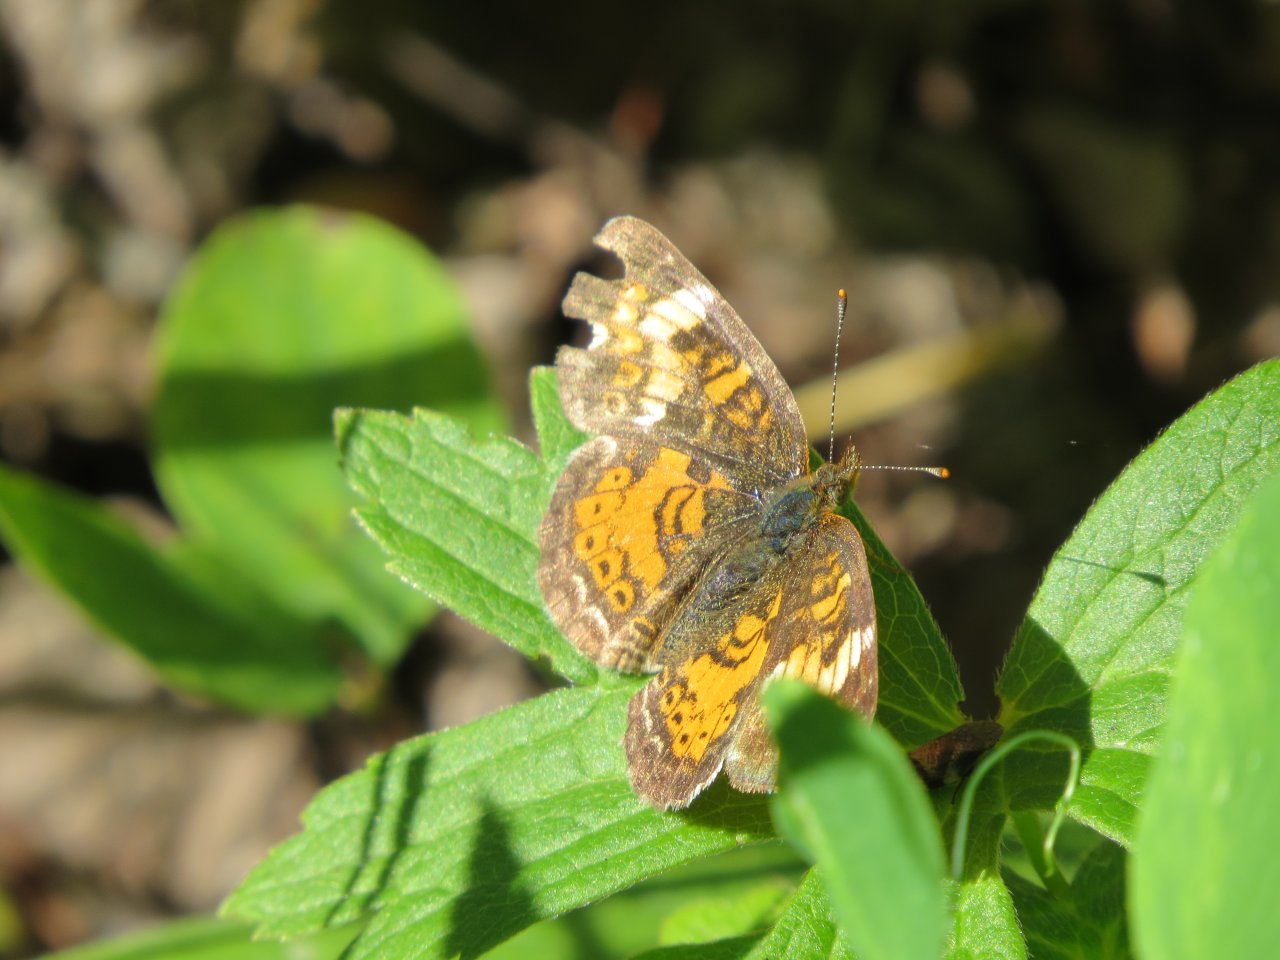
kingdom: Animalia
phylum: Arthropoda
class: Insecta
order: Lepidoptera
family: Nymphalidae
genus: Phyciodes
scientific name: Phyciodes tharos
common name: Northern Crescent
